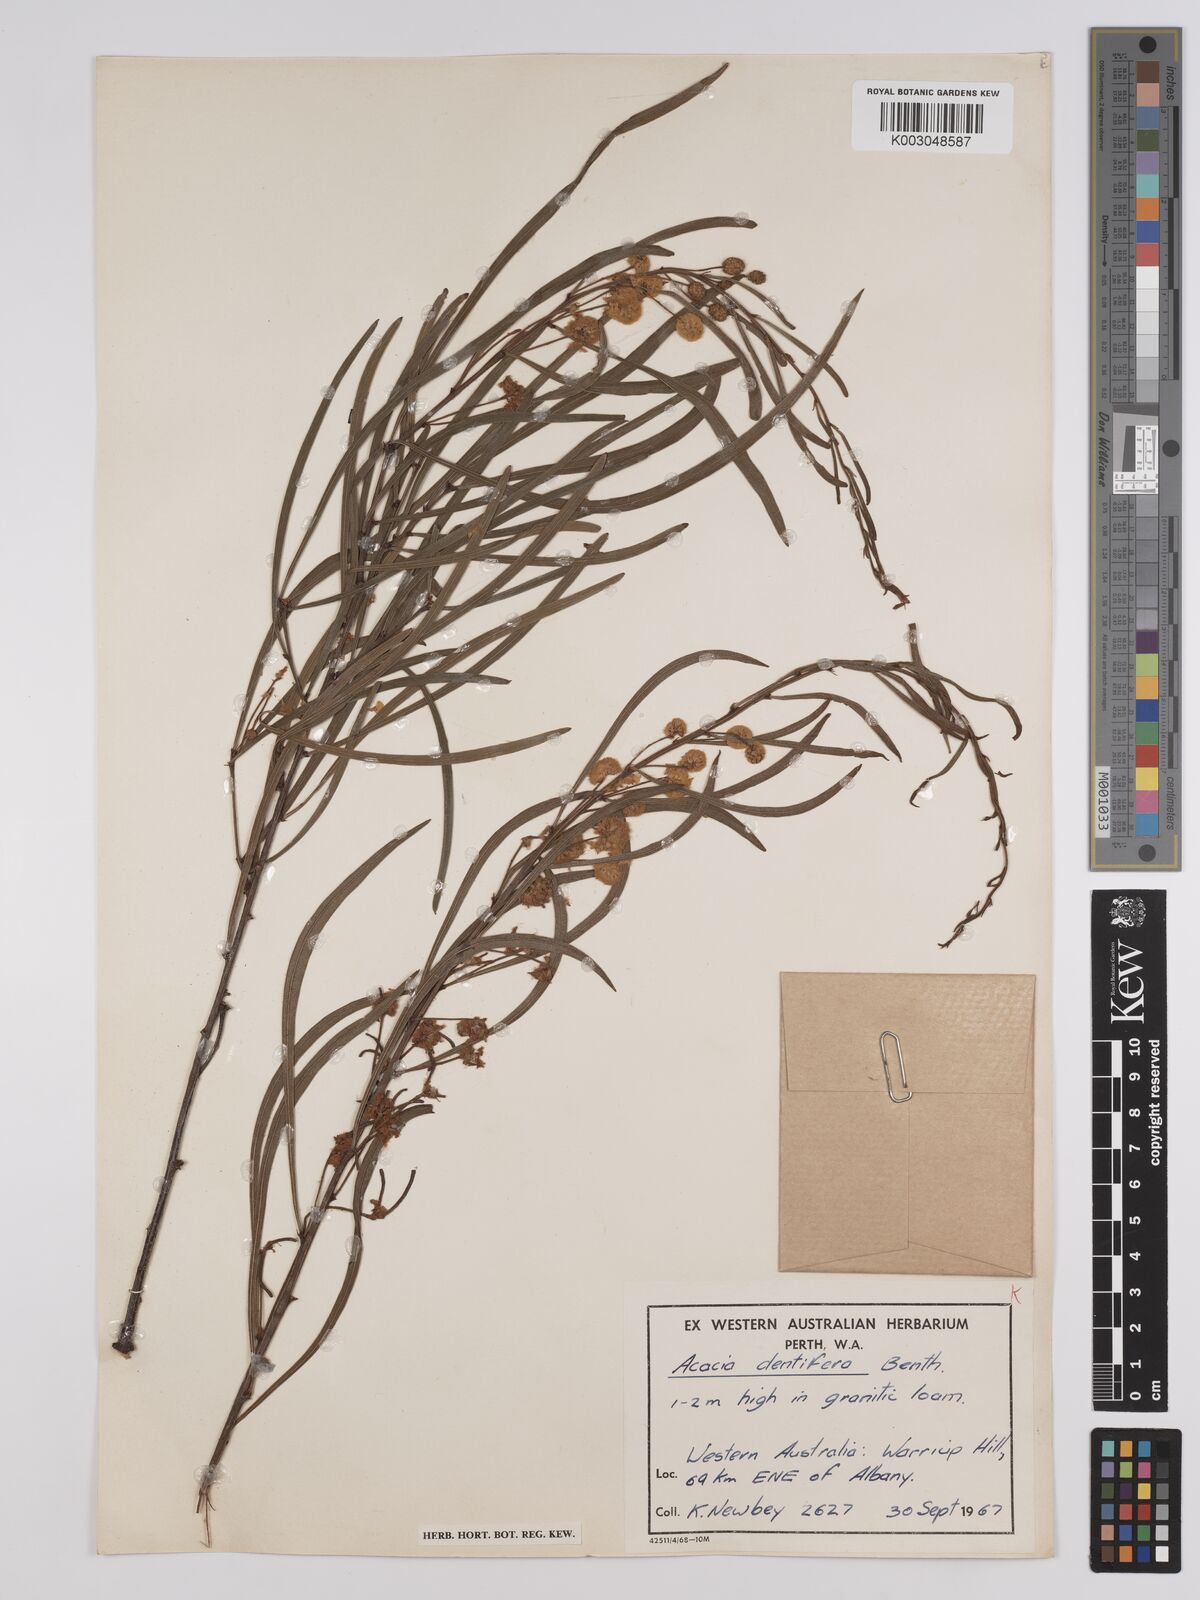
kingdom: Plantae
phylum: Tracheophyta
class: Magnoliopsida
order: Fabales
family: Fabaceae
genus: Acacia
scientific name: Acacia dentifera
